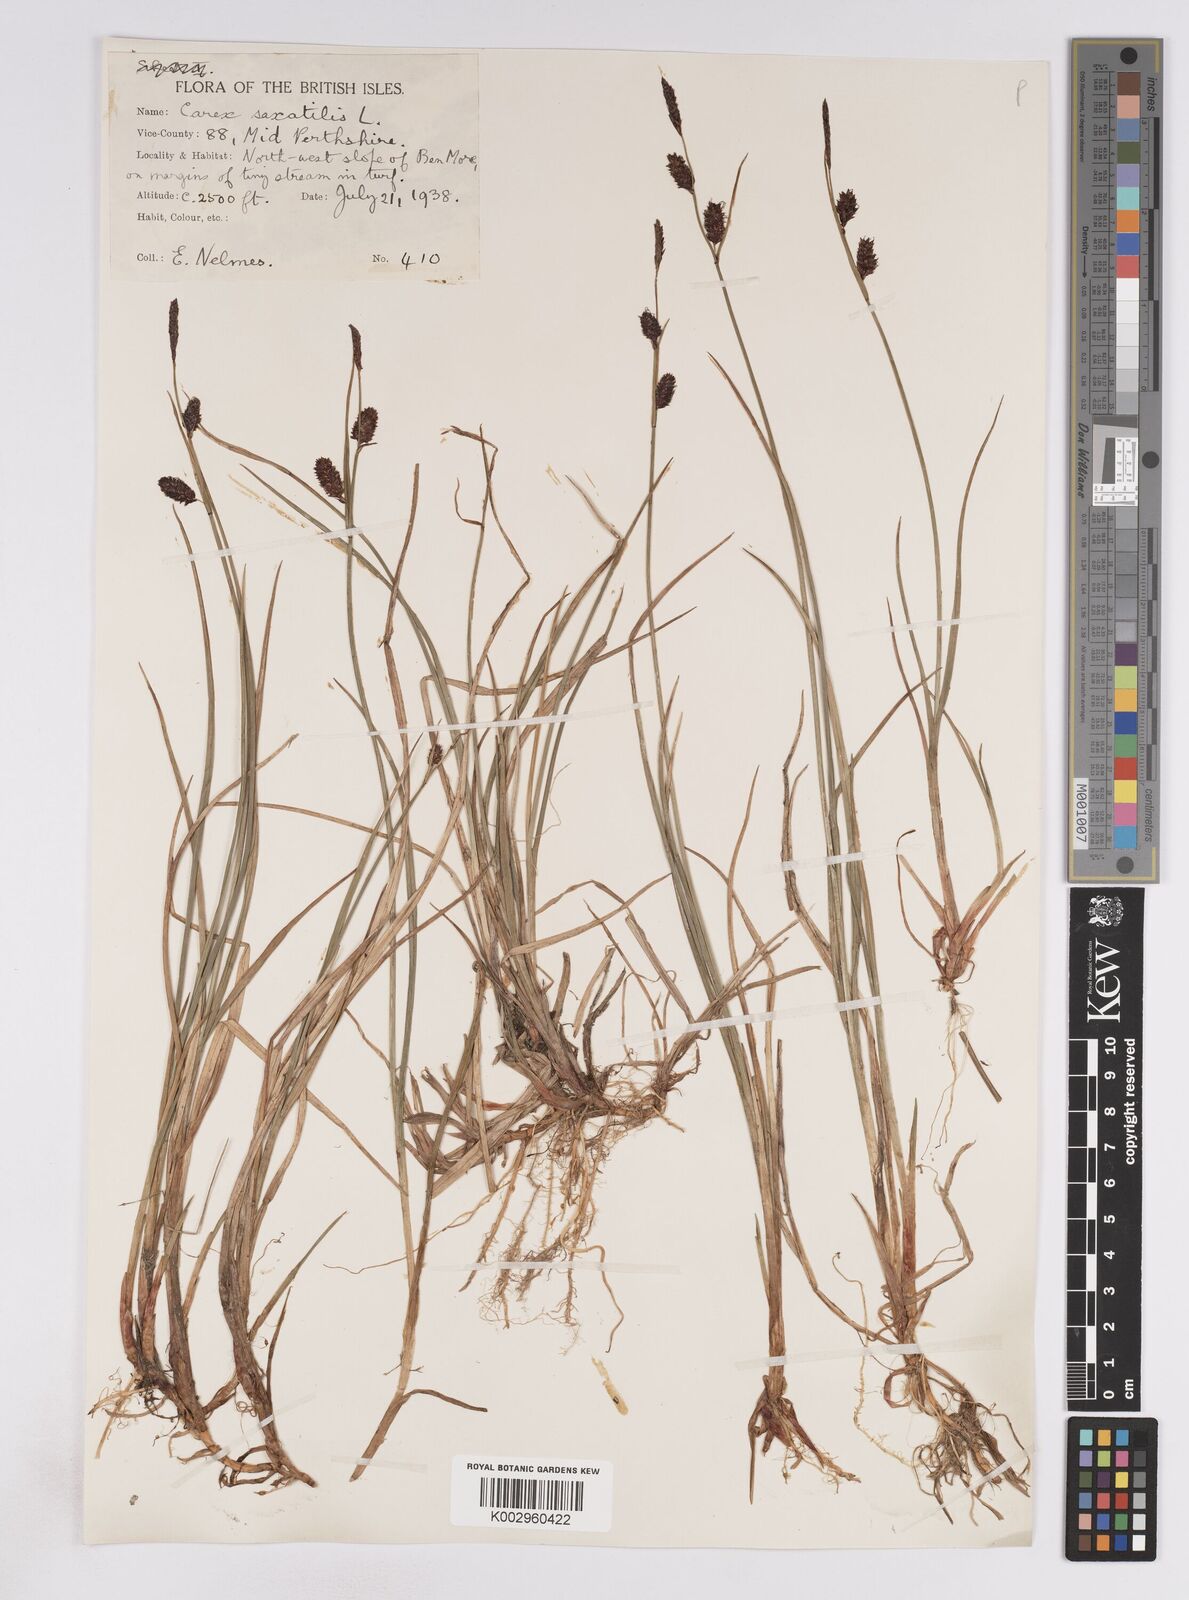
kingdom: Plantae
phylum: Tracheophyta
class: Liliopsida
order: Poales
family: Cyperaceae
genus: Carex
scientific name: Carex saxatilis
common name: Russet sedge
